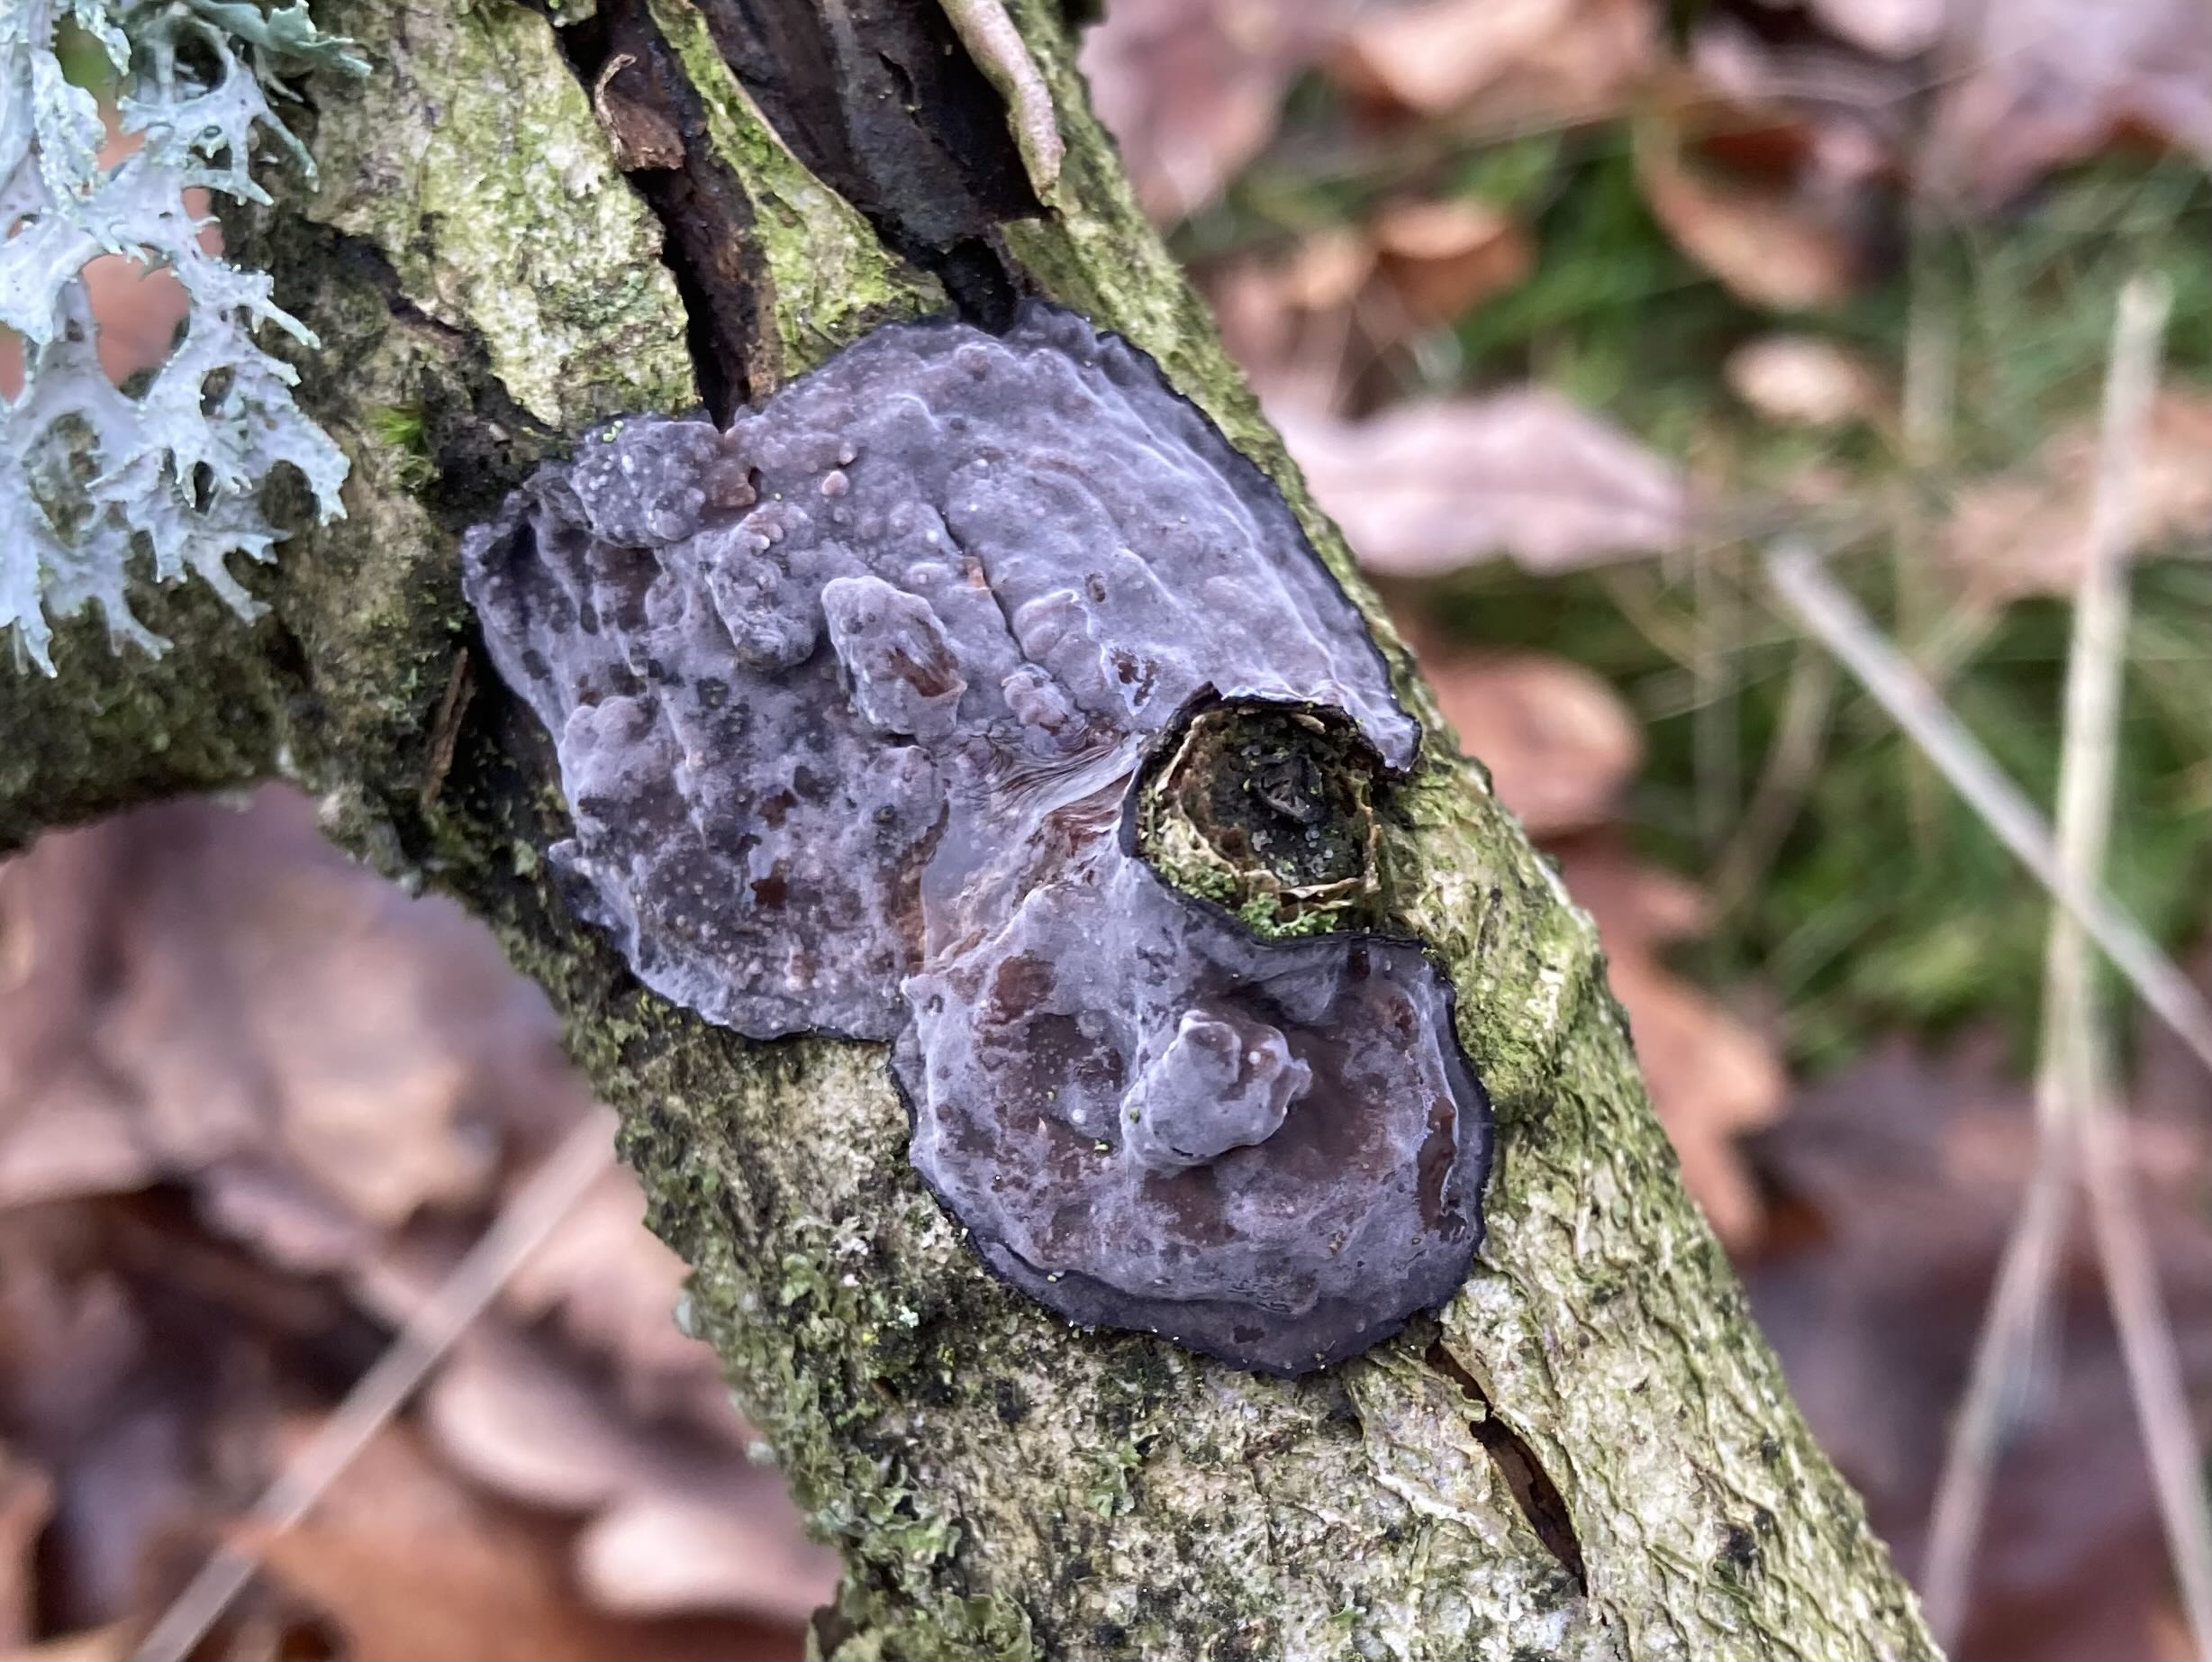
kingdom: Fungi
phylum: Basidiomycota
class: Agaricomycetes
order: Russulales
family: Peniophoraceae
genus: Peniophora
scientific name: Peniophora quercina
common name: ege-voksskind
